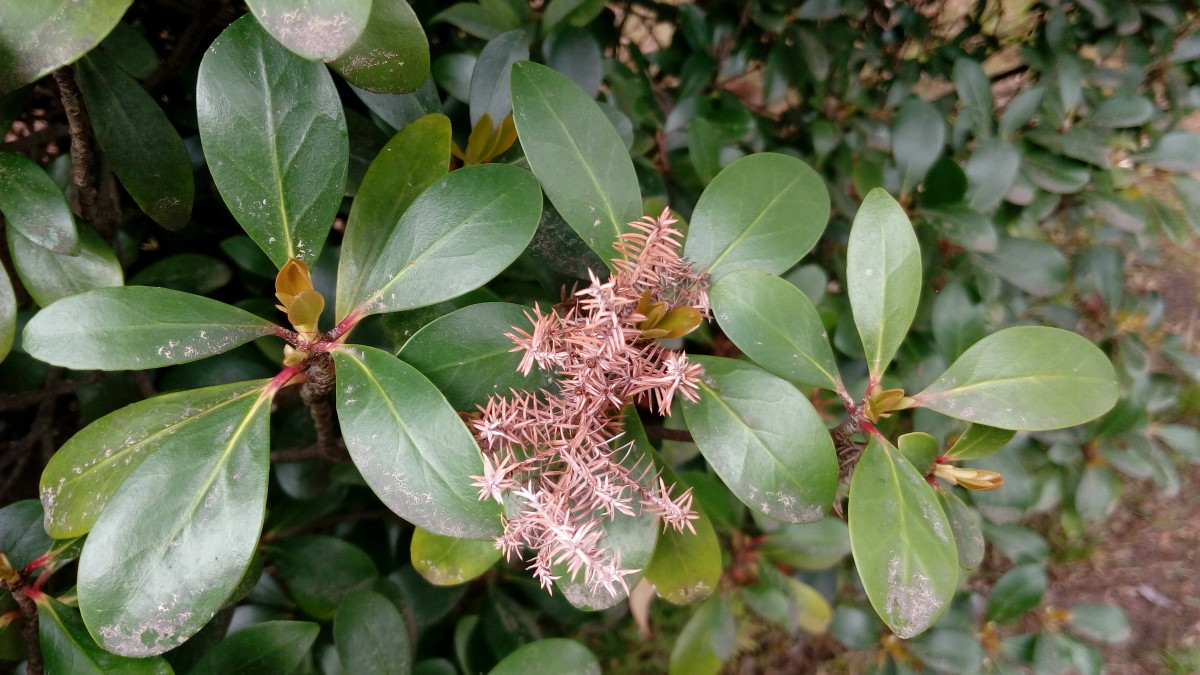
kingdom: Plantae
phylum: Tracheophyta
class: Magnoliopsida
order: Ericales
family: Pentaphylacaceae
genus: Ternstroemia
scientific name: Ternstroemia gymnanthera
